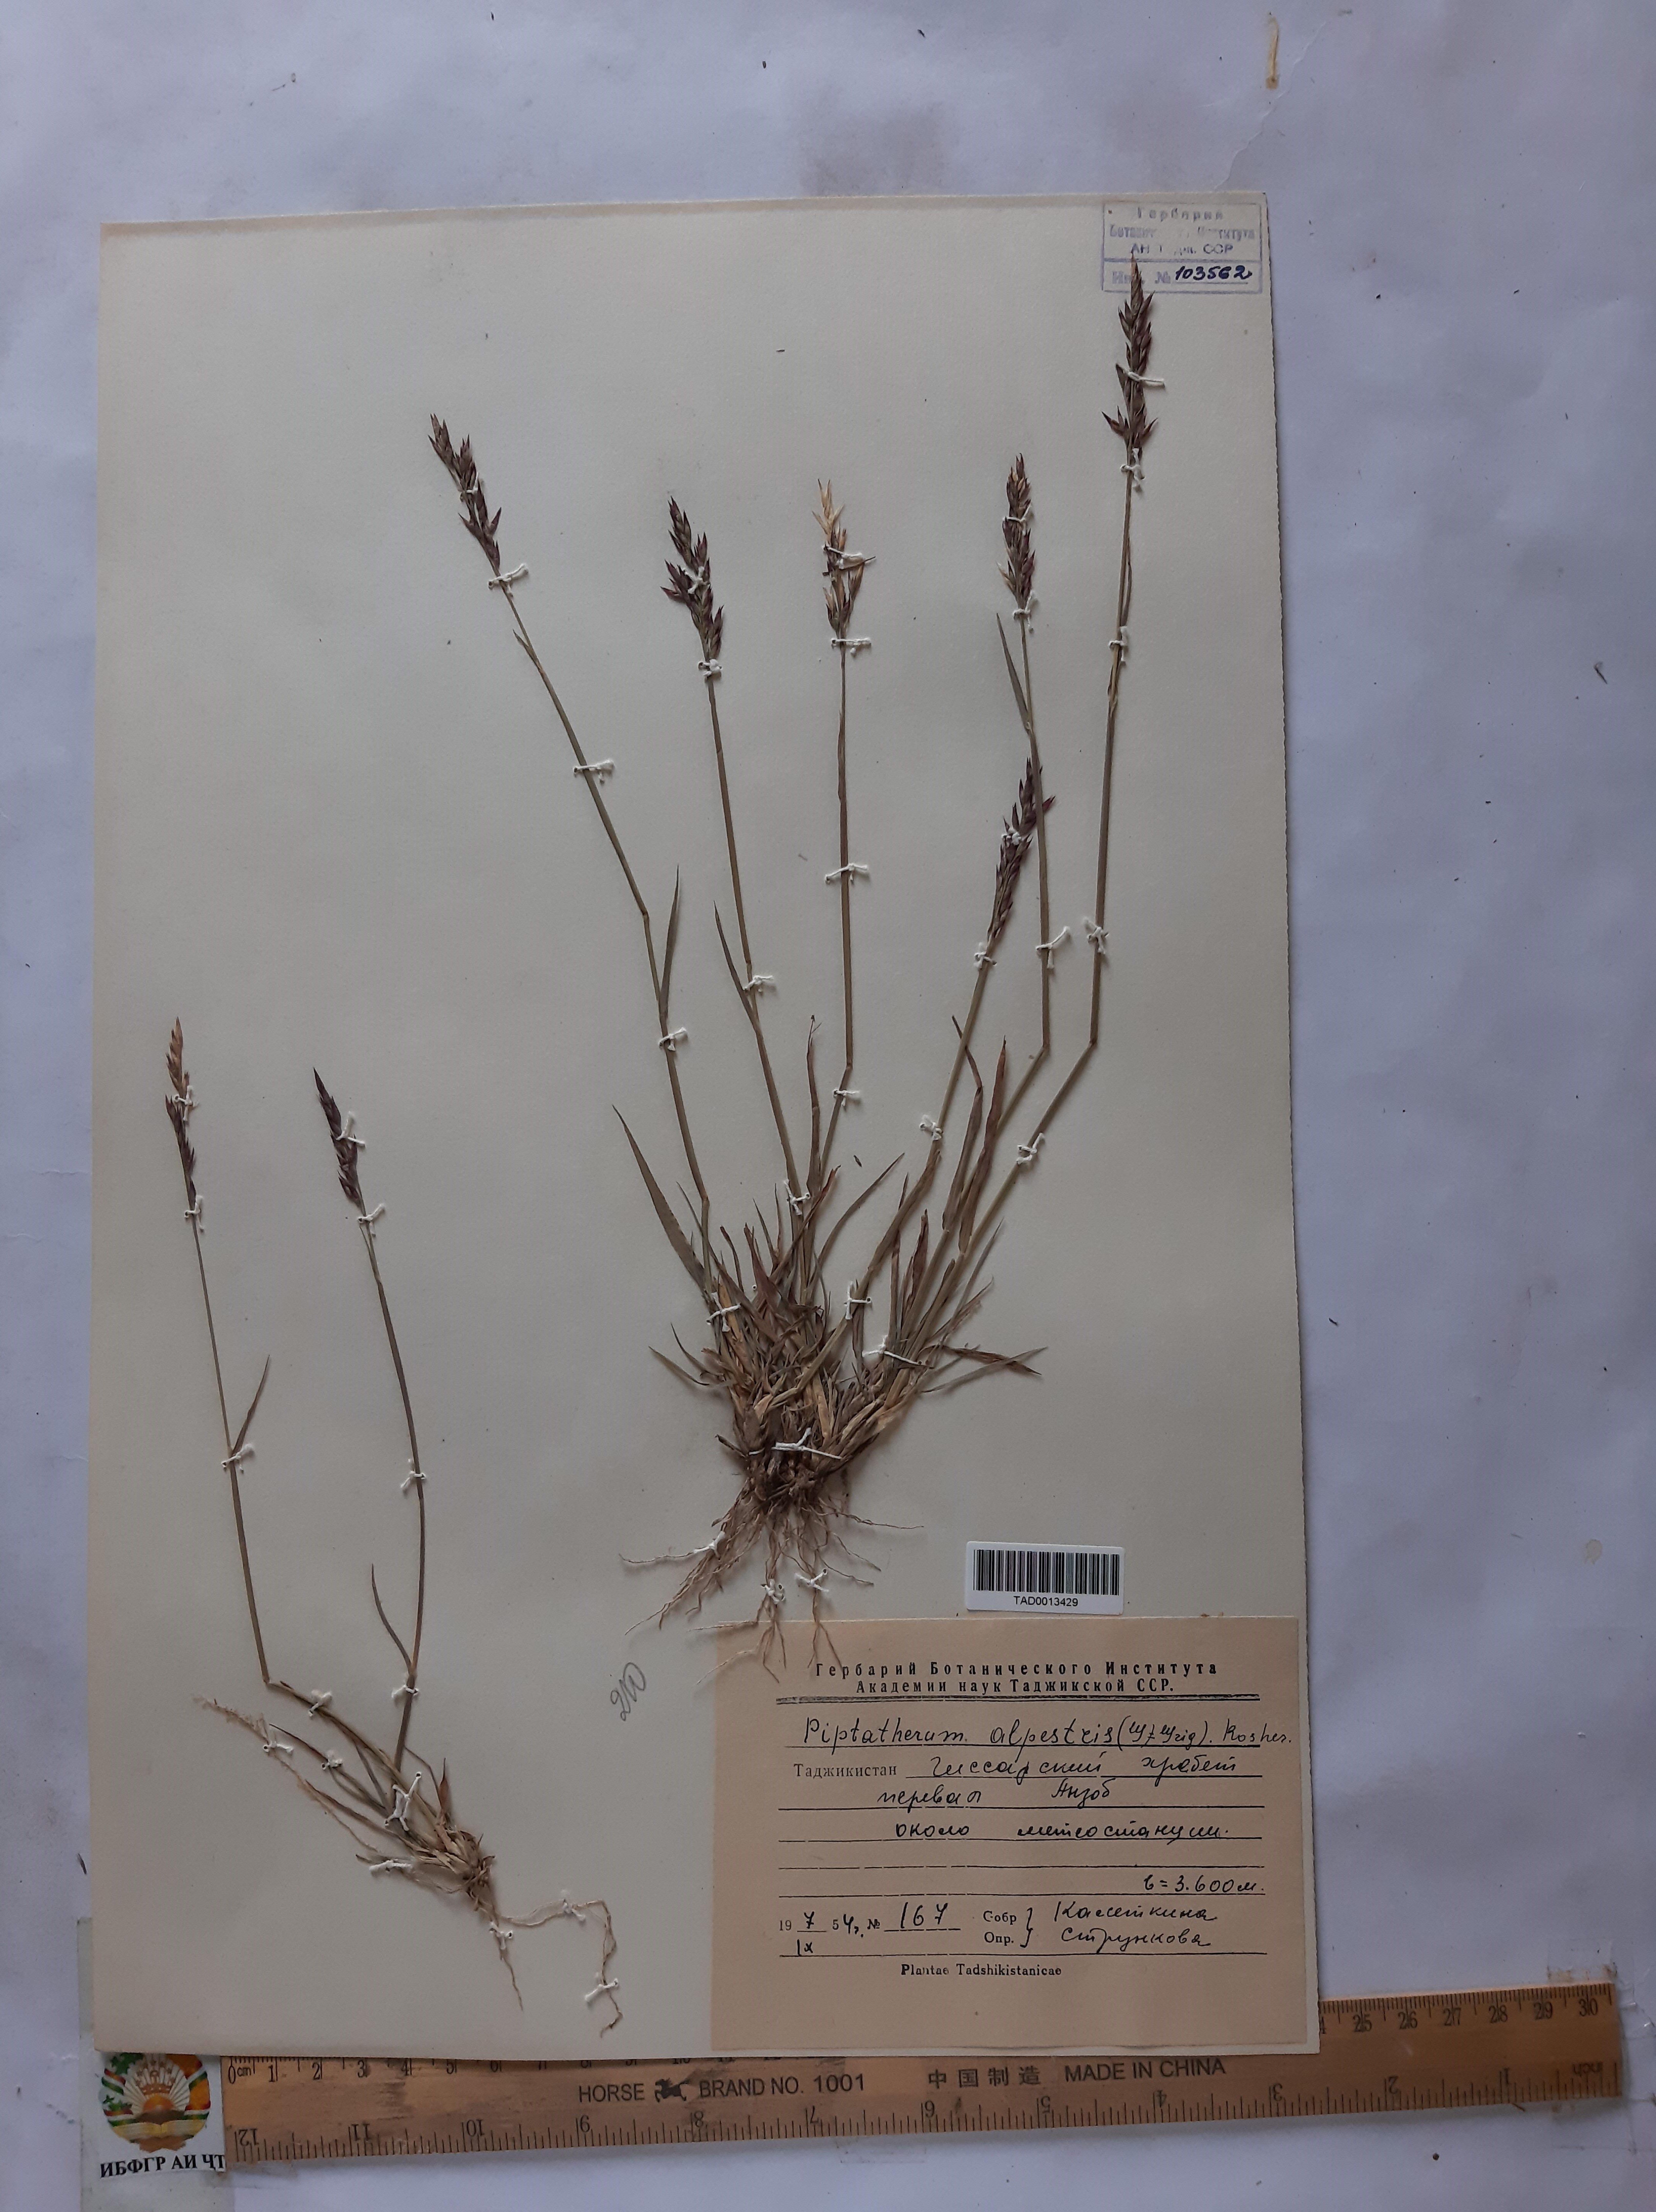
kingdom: Plantae
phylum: Tracheophyta
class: Liliopsida
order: Poales
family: Poaceae
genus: Piptatherum
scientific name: Piptatherum alpestre
